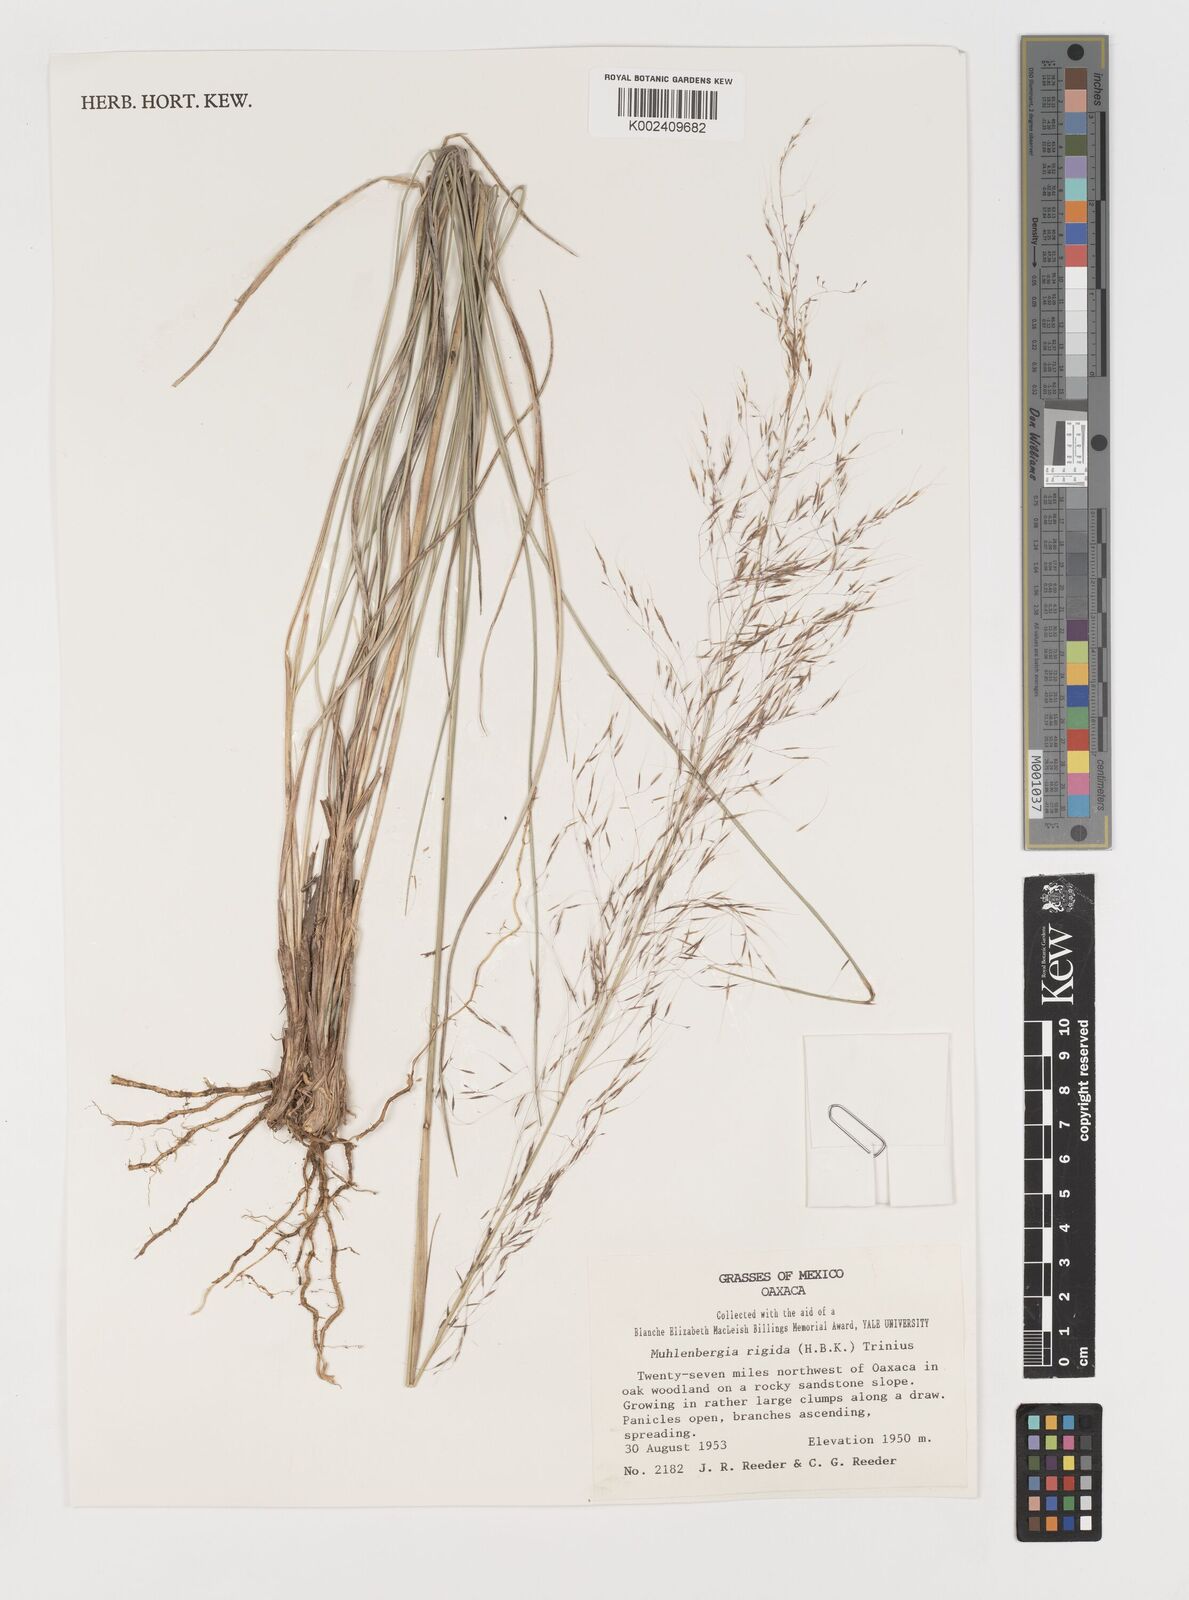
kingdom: Plantae
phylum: Tracheophyta
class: Liliopsida
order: Poales
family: Poaceae
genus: Muhlenbergia
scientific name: Muhlenbergia rigida
